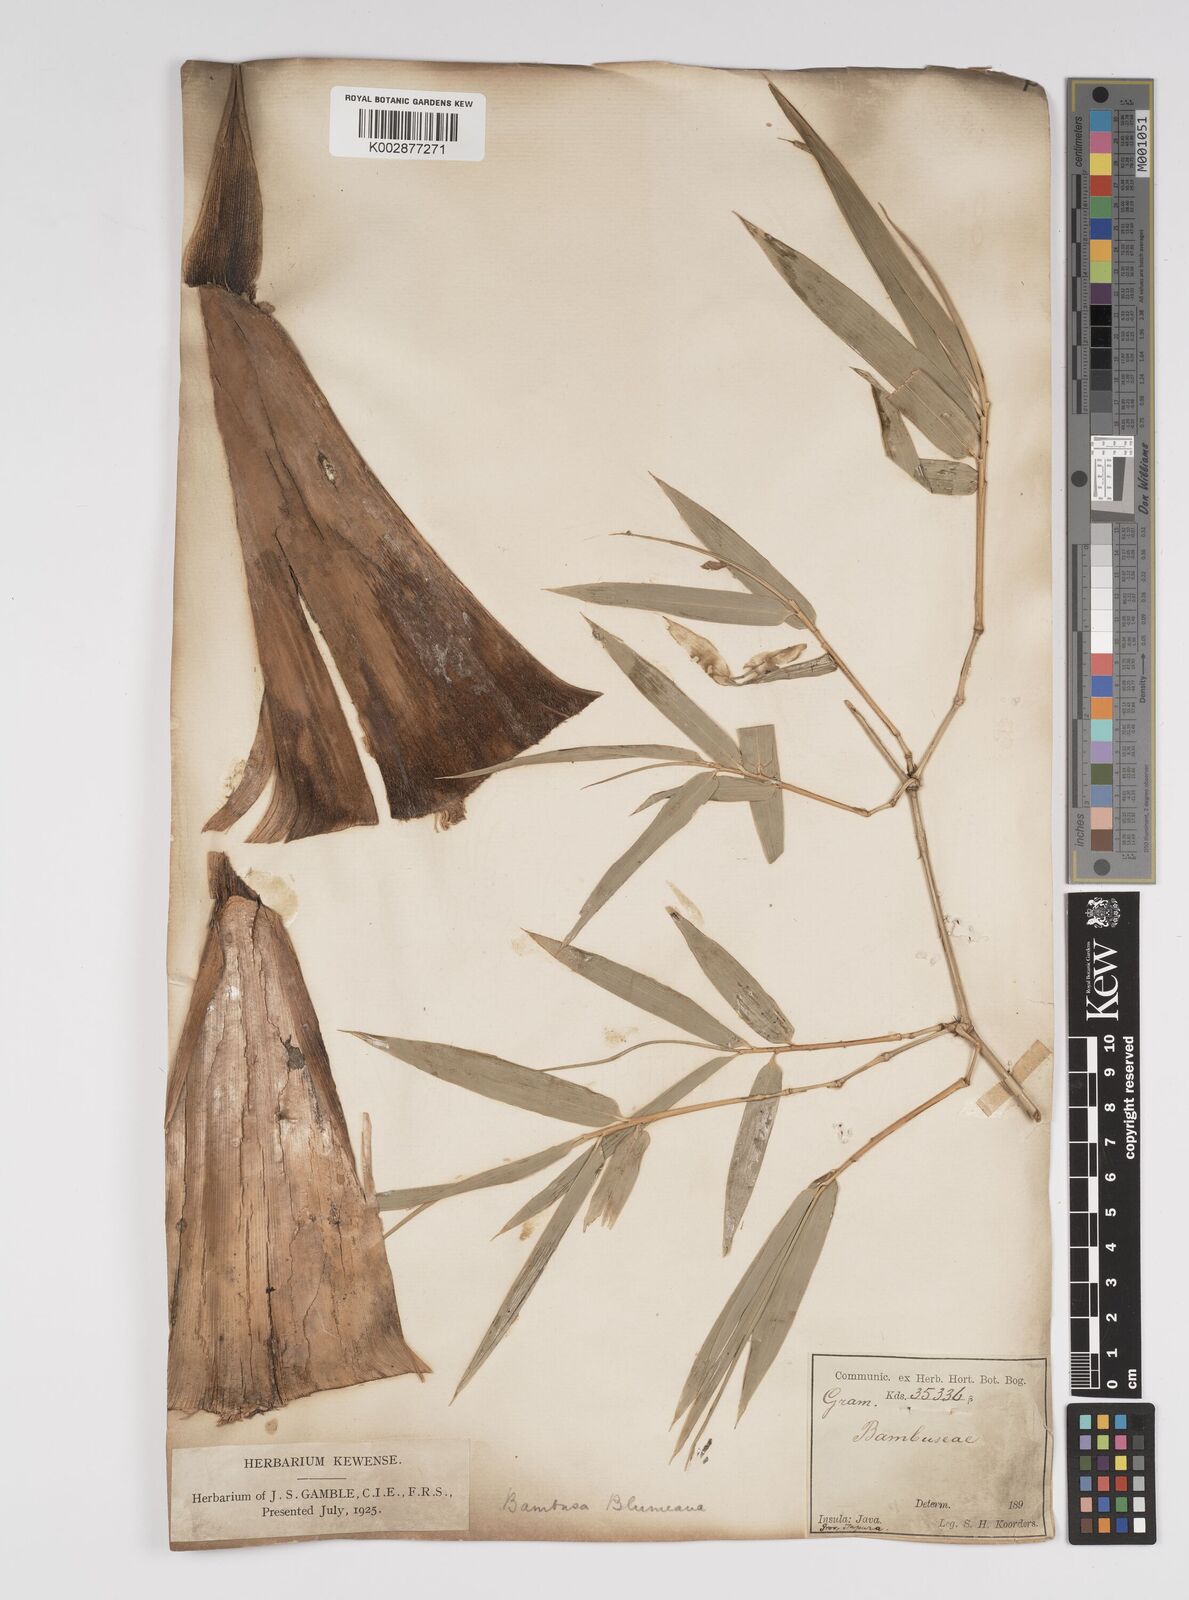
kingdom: Plantae
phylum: Tracheophyta
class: Liliopsida
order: Poales
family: Poaceae
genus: Bambusa
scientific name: Bambusa spinosa
